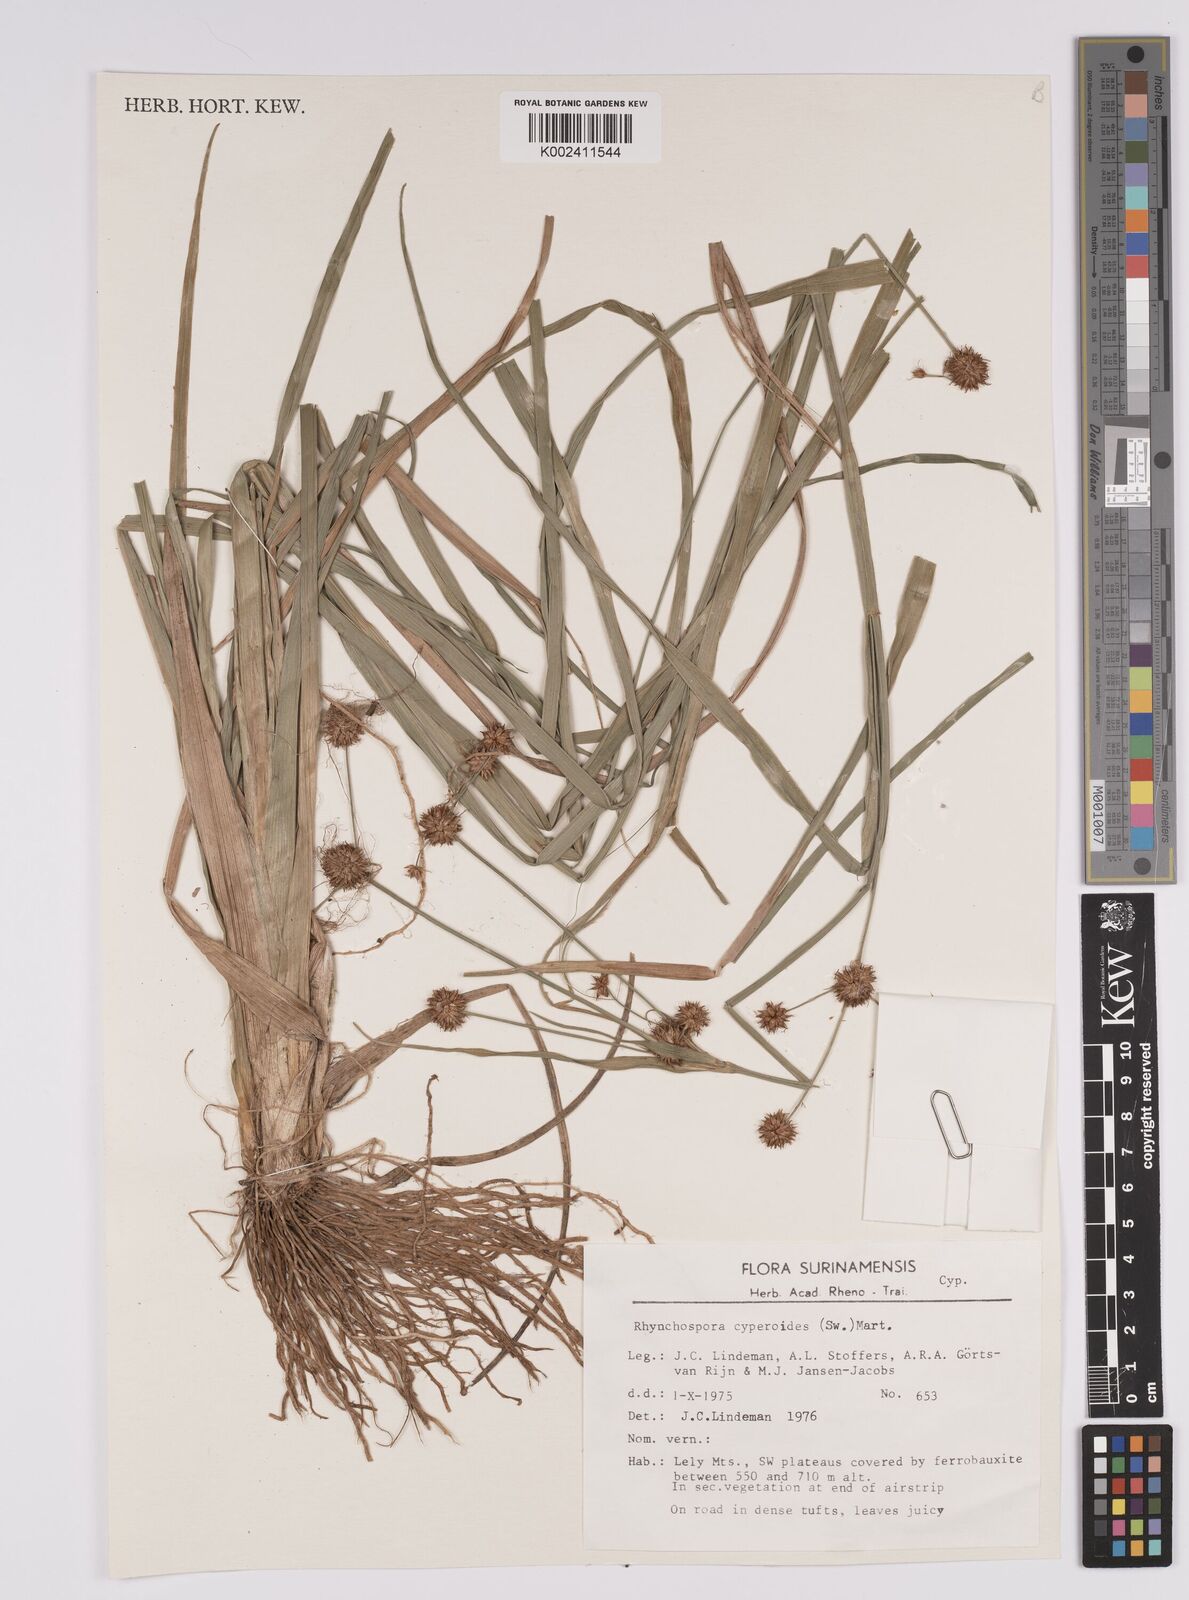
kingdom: Plantae
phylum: Tracheophyta
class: Liliopsida
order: Poales
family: Cyperaceae
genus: Rhynchospora
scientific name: Rhynchospora holoschoenoides
